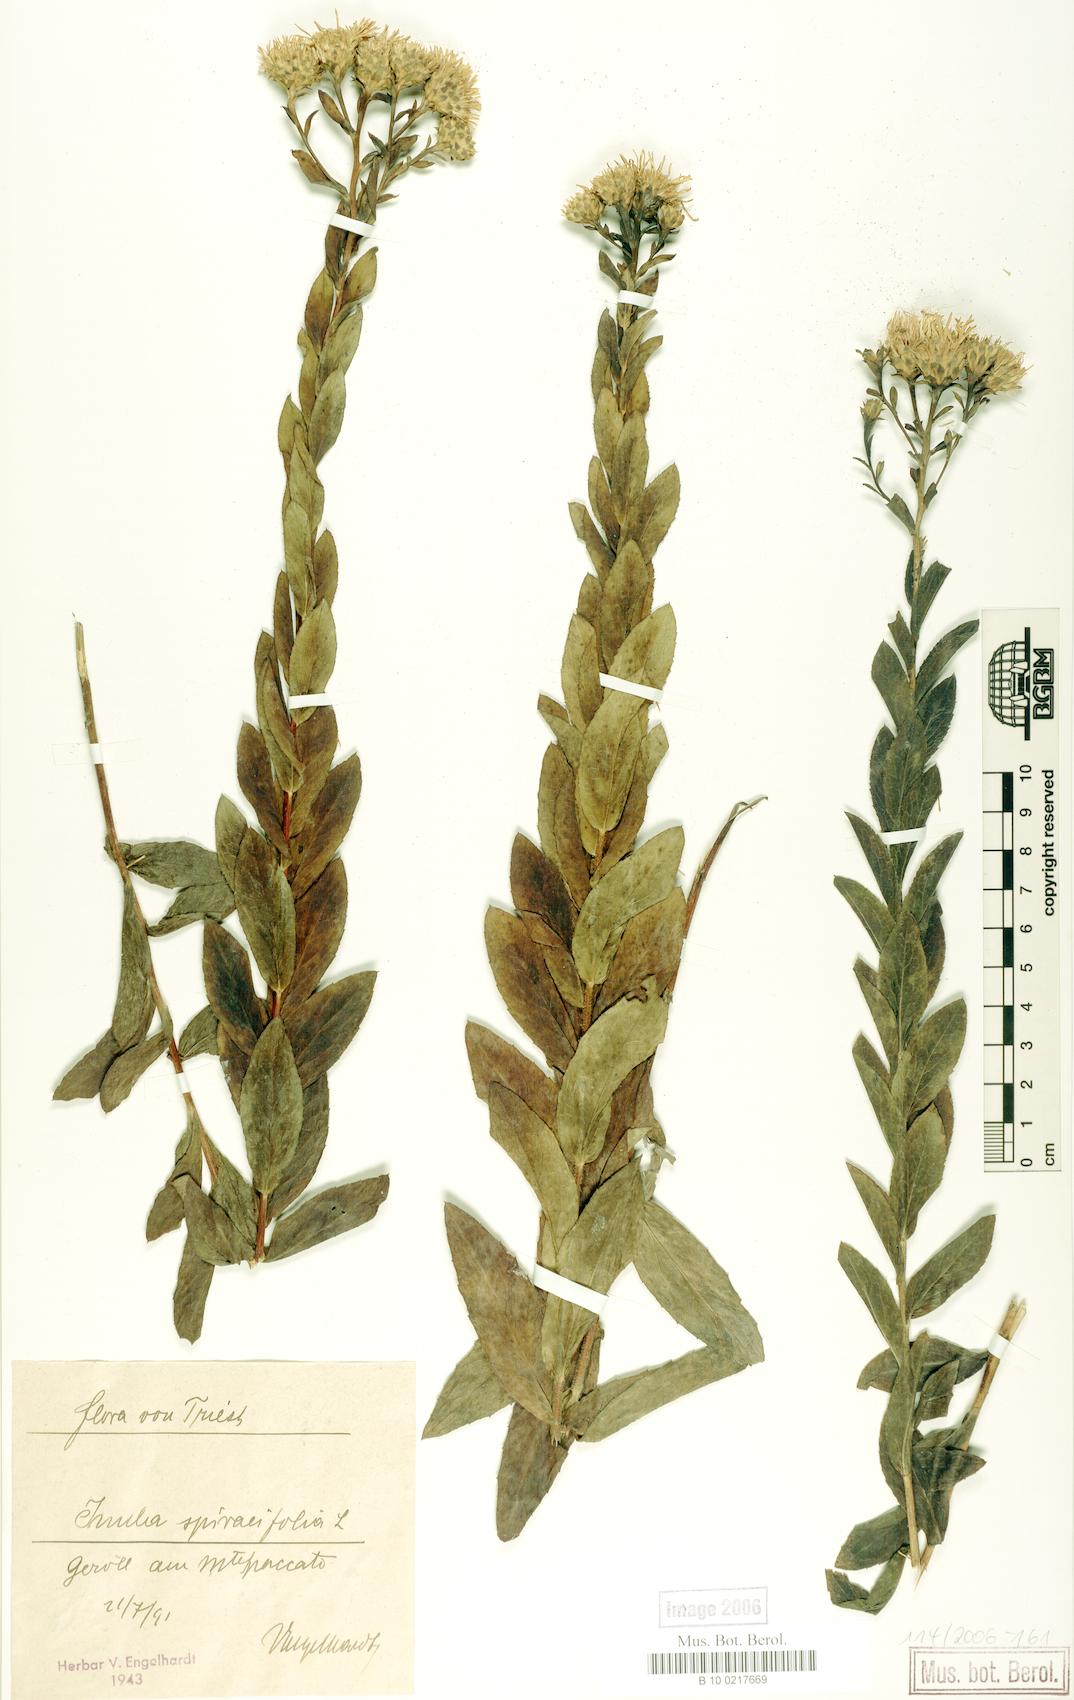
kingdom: Plantae
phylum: Tracheophyta
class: Magnoliopsida
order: Asterales
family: Asteraceae
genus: Pentanema
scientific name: Pentanema spiraeifolium
